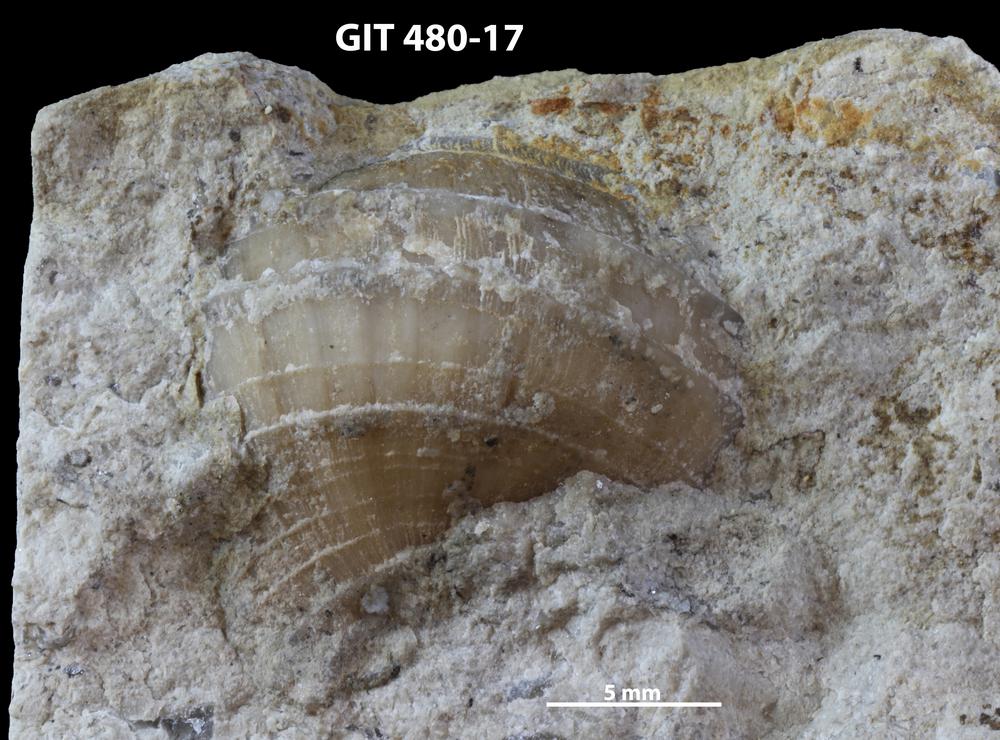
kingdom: Animalia
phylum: Mollusca
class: Gastropoda
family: Platyceratidae
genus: Cyclonema
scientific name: Cyclonema
